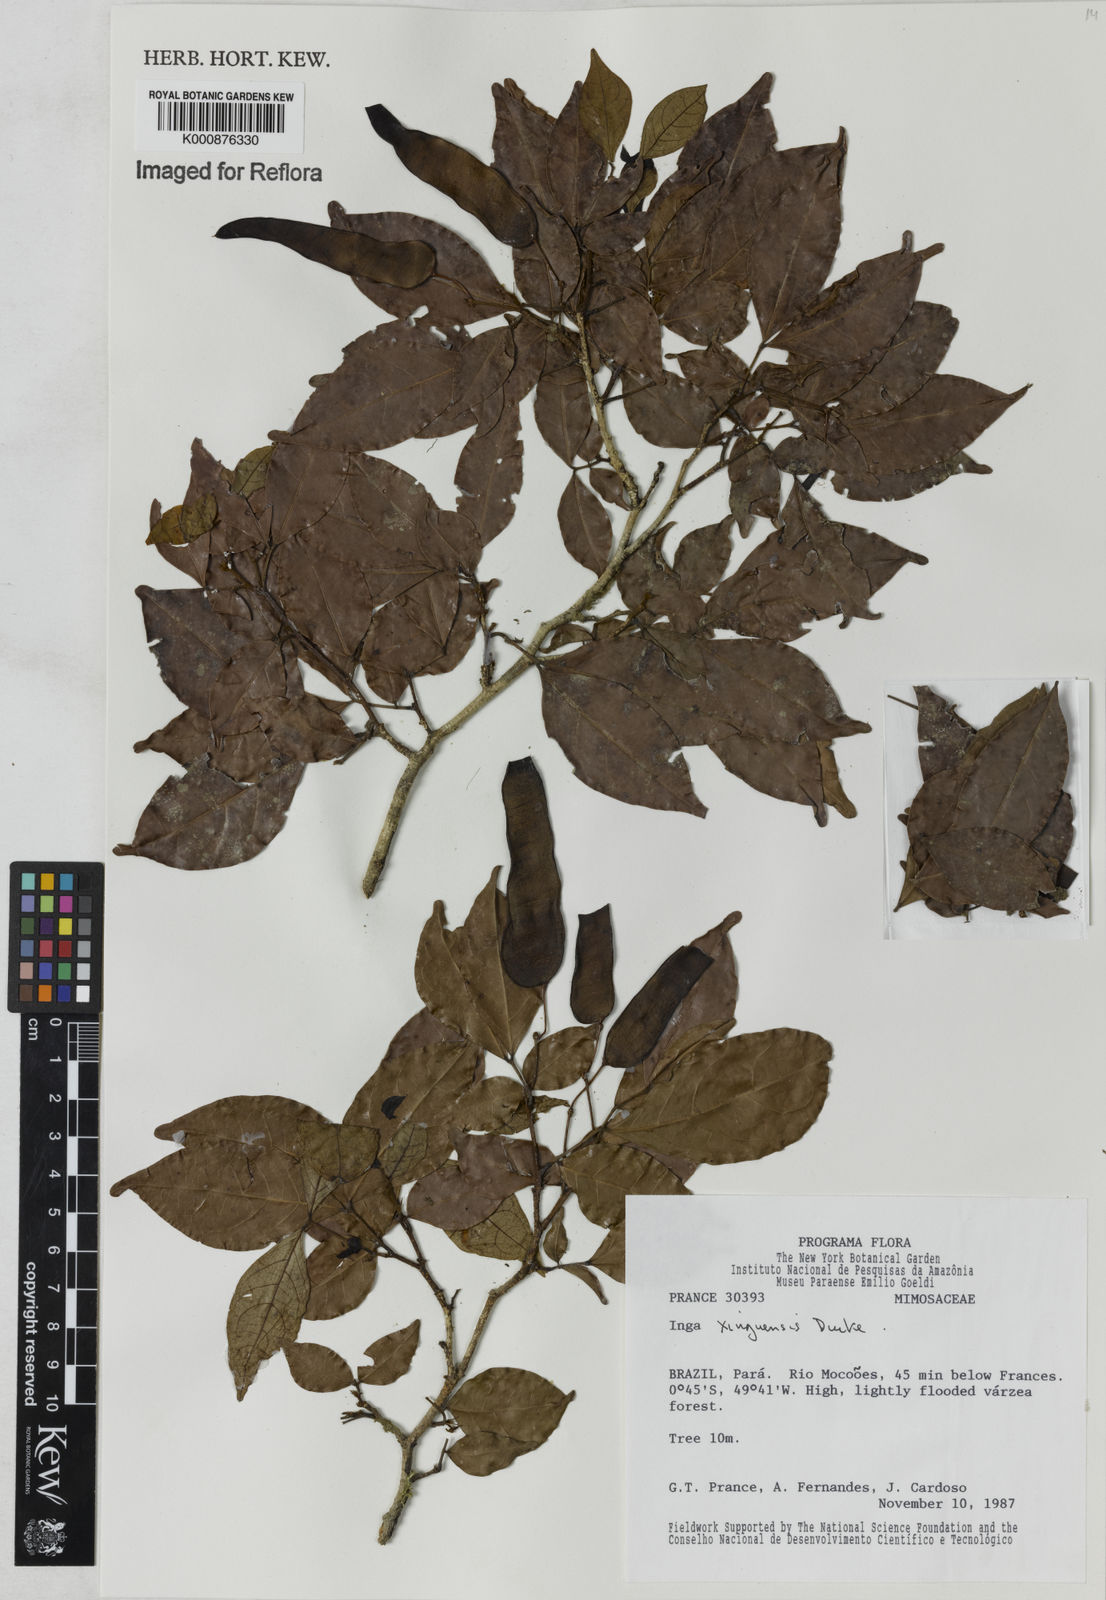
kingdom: Plantae
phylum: Tracheophyta
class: Magnoliopsida
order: Fabales
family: Fabaceae
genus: Inga
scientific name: Inga xinguensis
